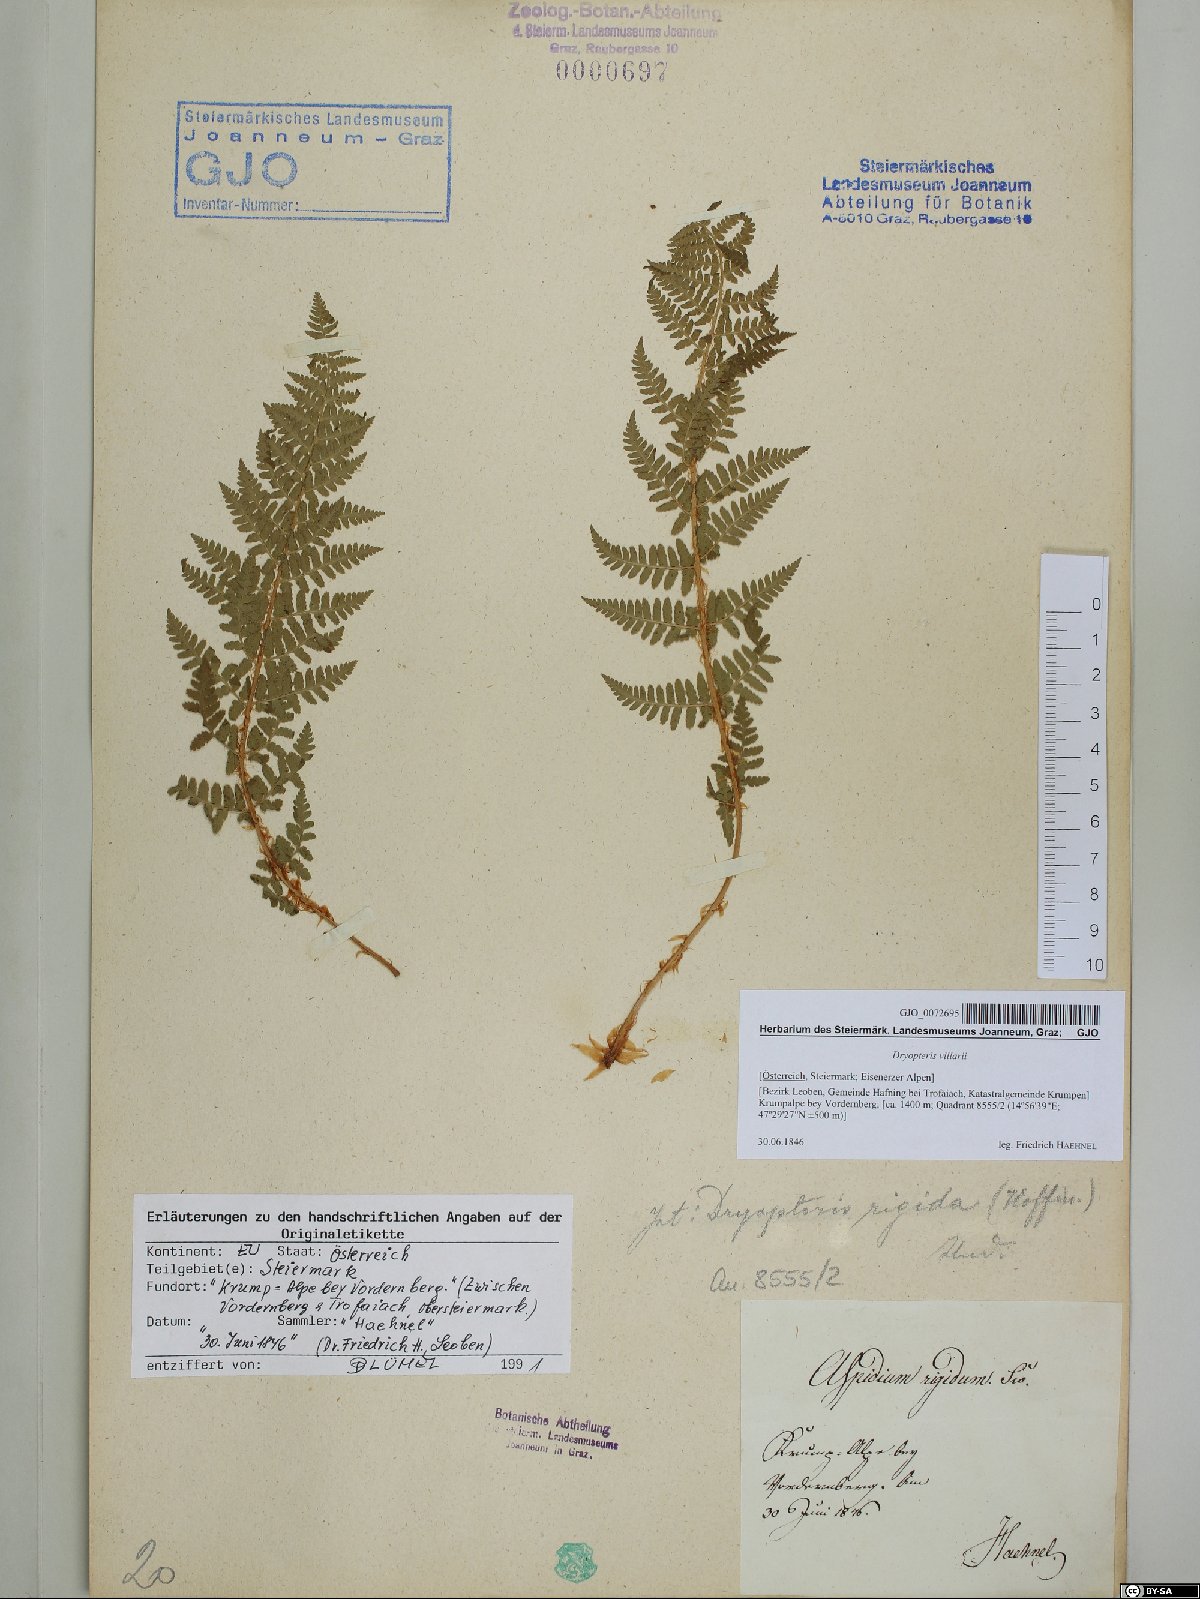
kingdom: Plantae
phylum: Tracheophyta
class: Polypodiopsida
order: Polypodiales
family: Dryopteridaceae
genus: Dryopteris
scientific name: Dryopteris villarii
